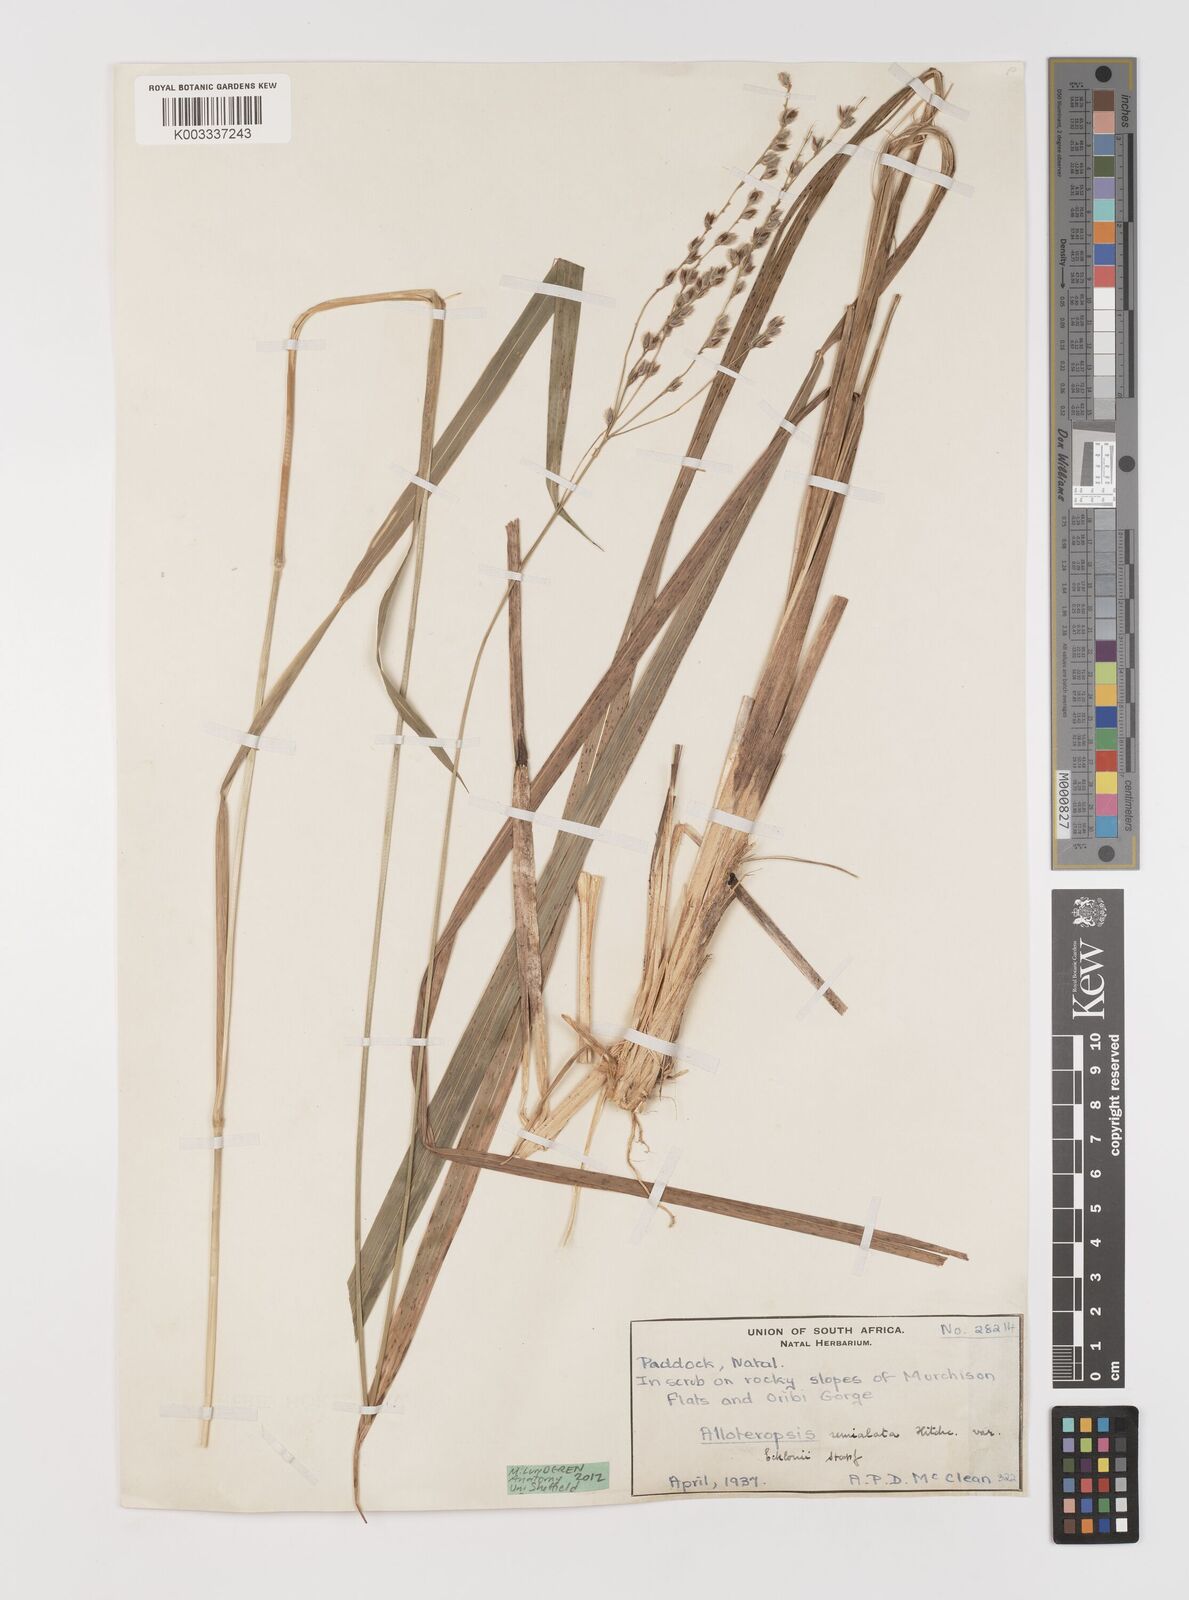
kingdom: Plantae
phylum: Tracheophyta
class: Liliopsida
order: Poales
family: Poaceae
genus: Alloteropsis
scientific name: Alloteropsis semialata
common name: Cockatoo grass
